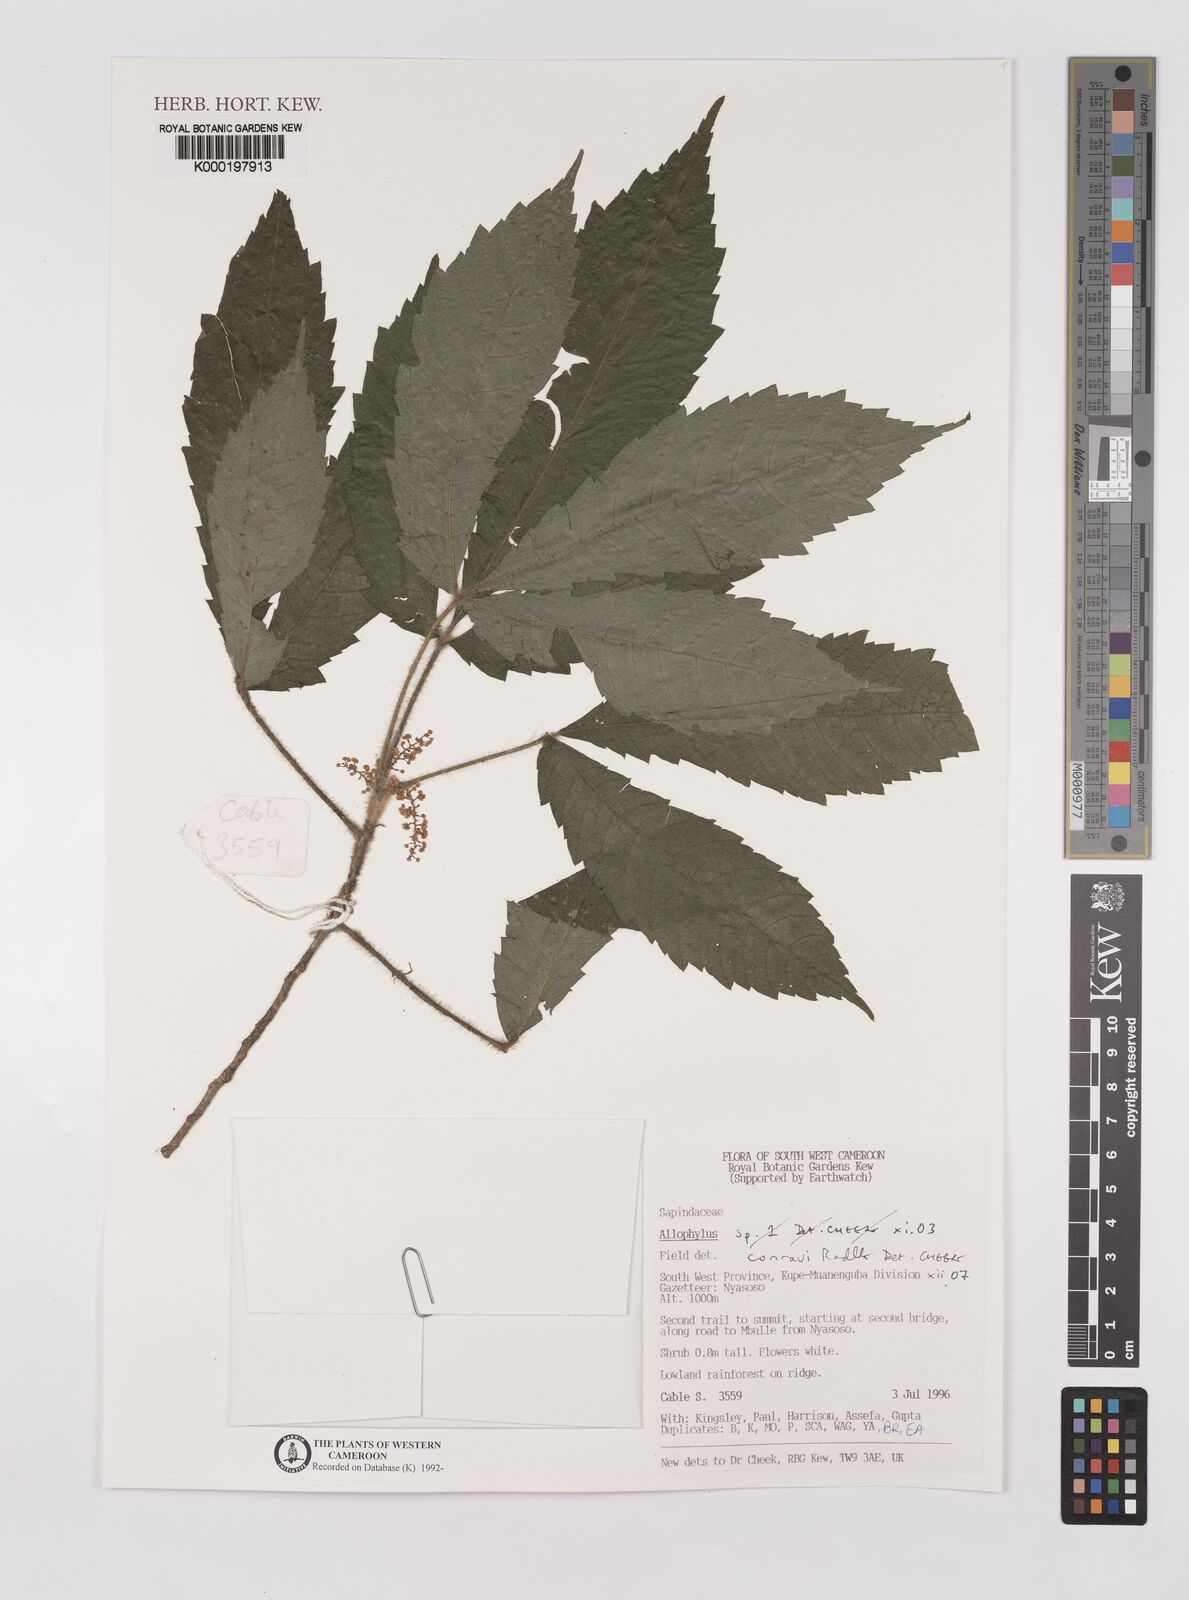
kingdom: Plantae
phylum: Tracheophyta
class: Magnoliopsida
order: Sapindales
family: Sapindaceae
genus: Allophylus
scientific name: Allophylus conraui
